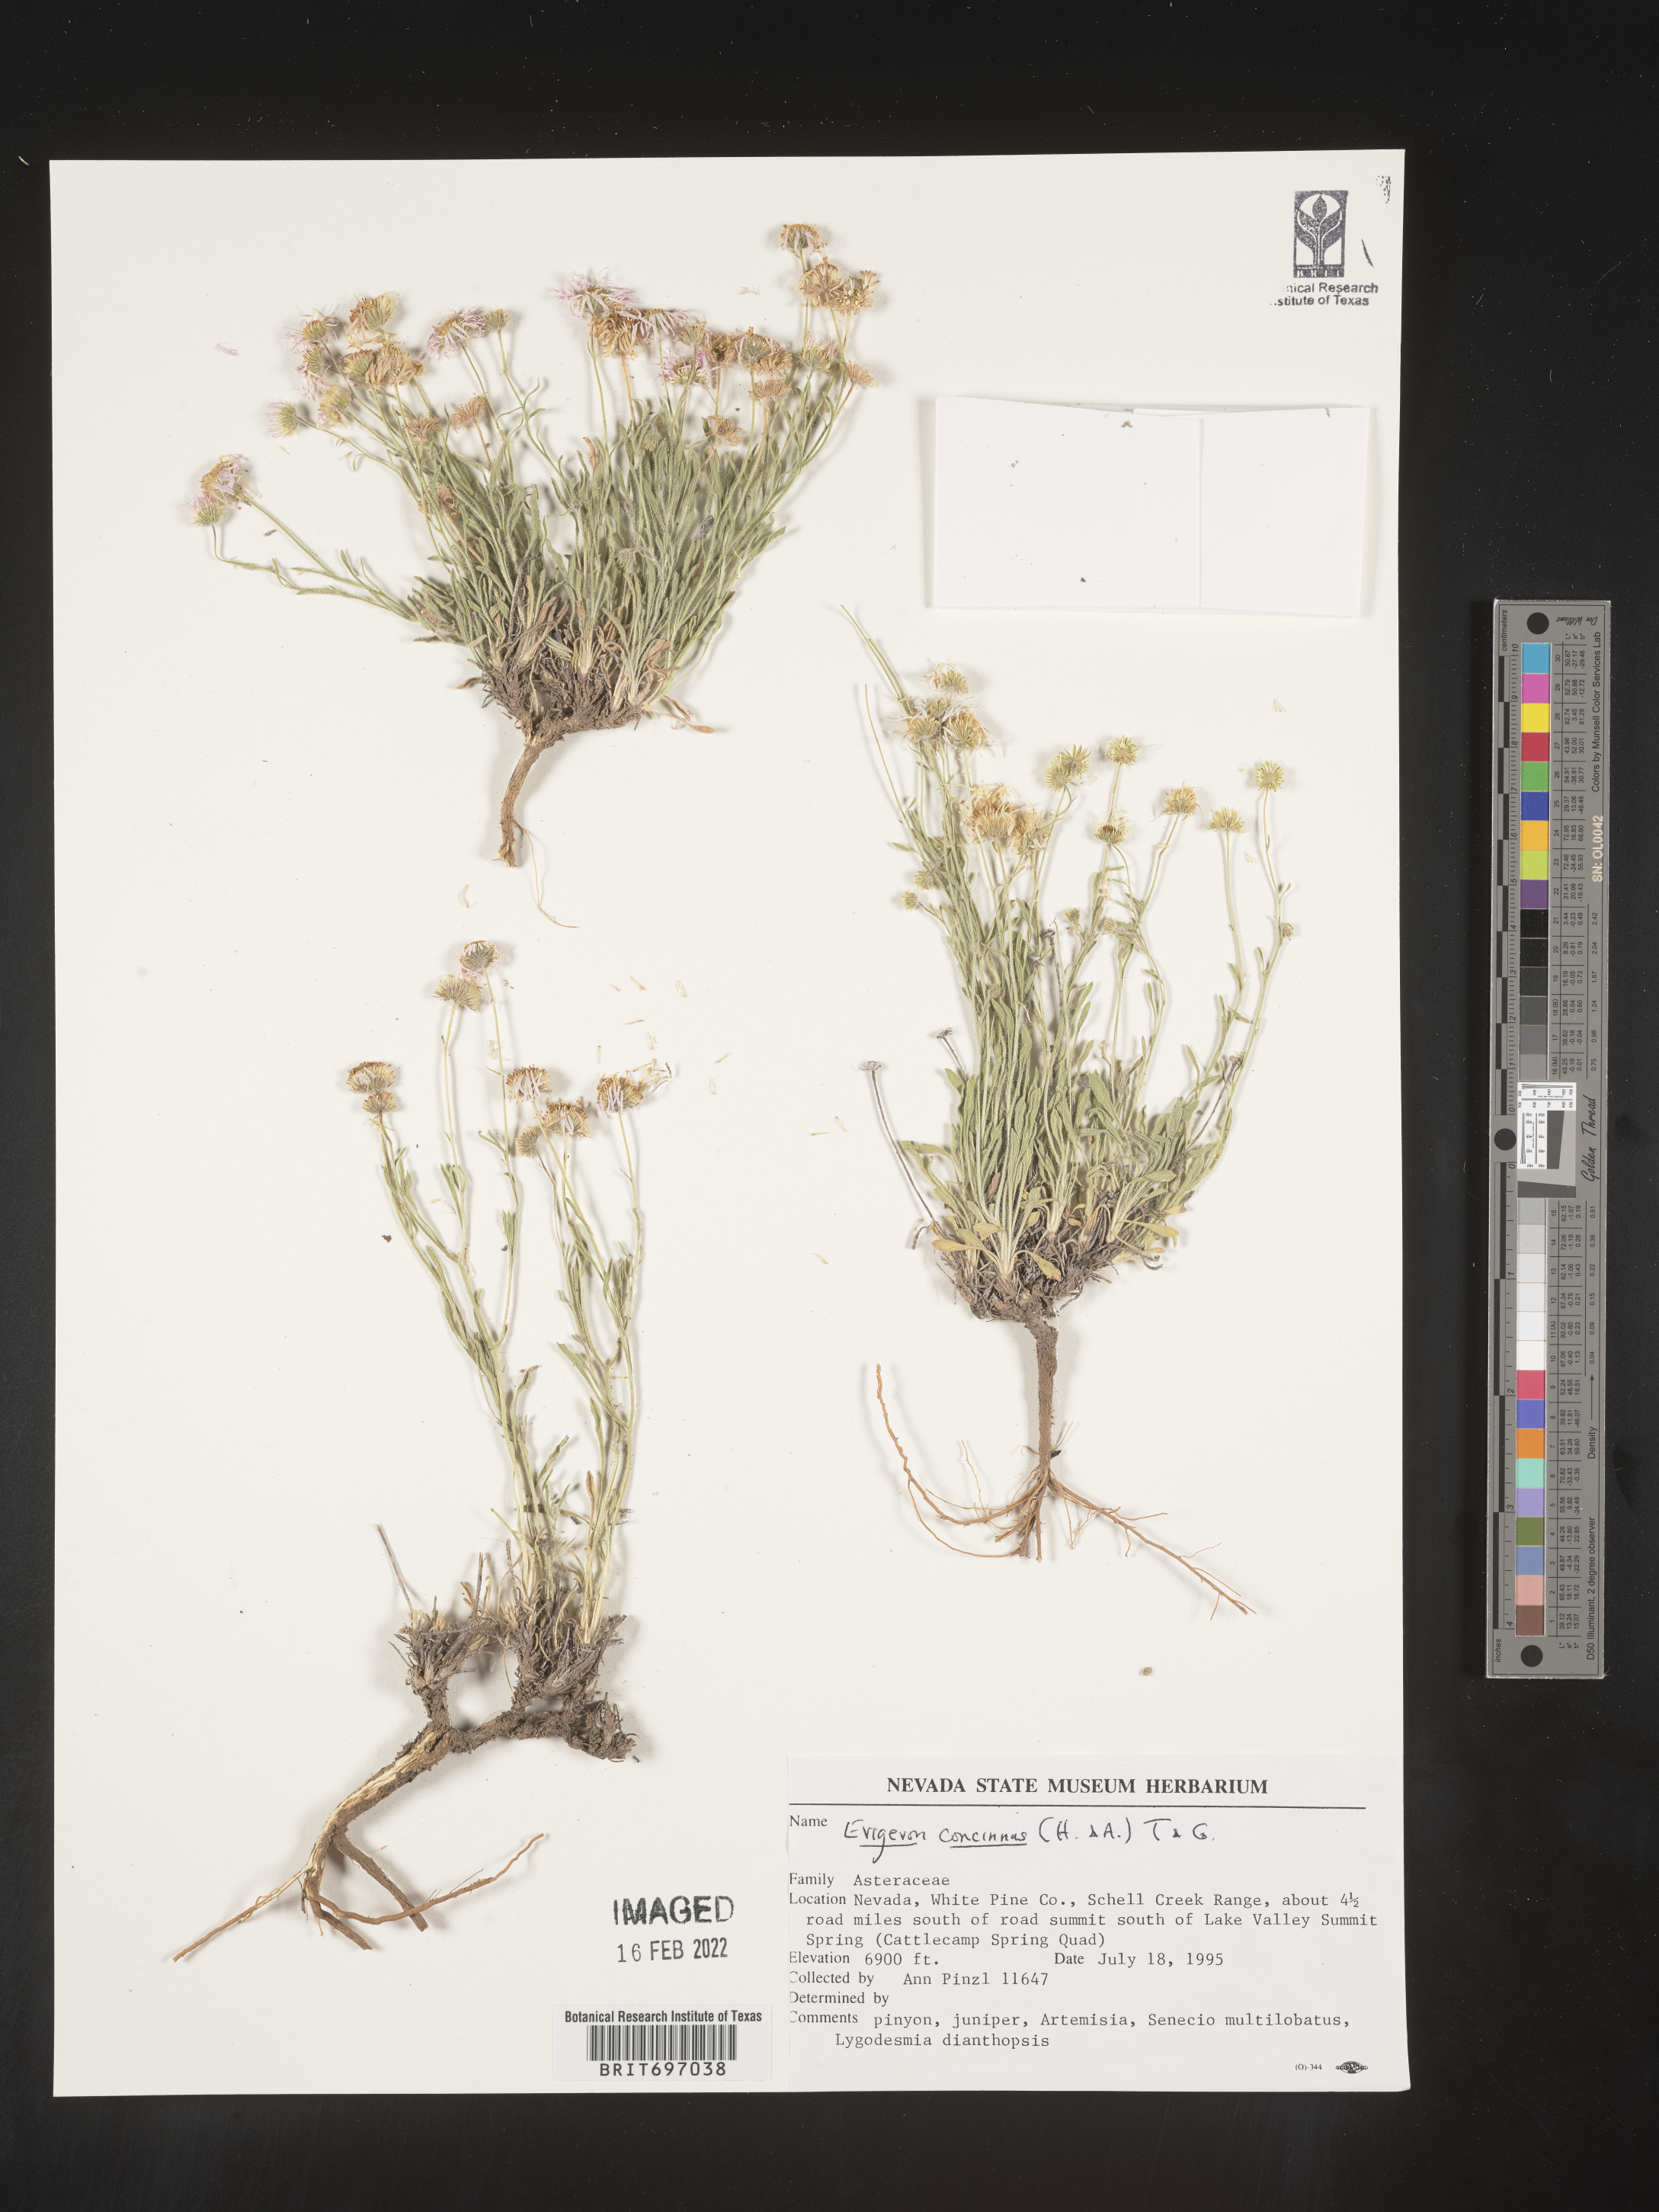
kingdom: Plantae
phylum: Tracheophyta
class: Magnoliopsida
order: Asterales
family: Asteraceae
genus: Erigeron
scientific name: Erigeron concinnus
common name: Navajo fleabane
